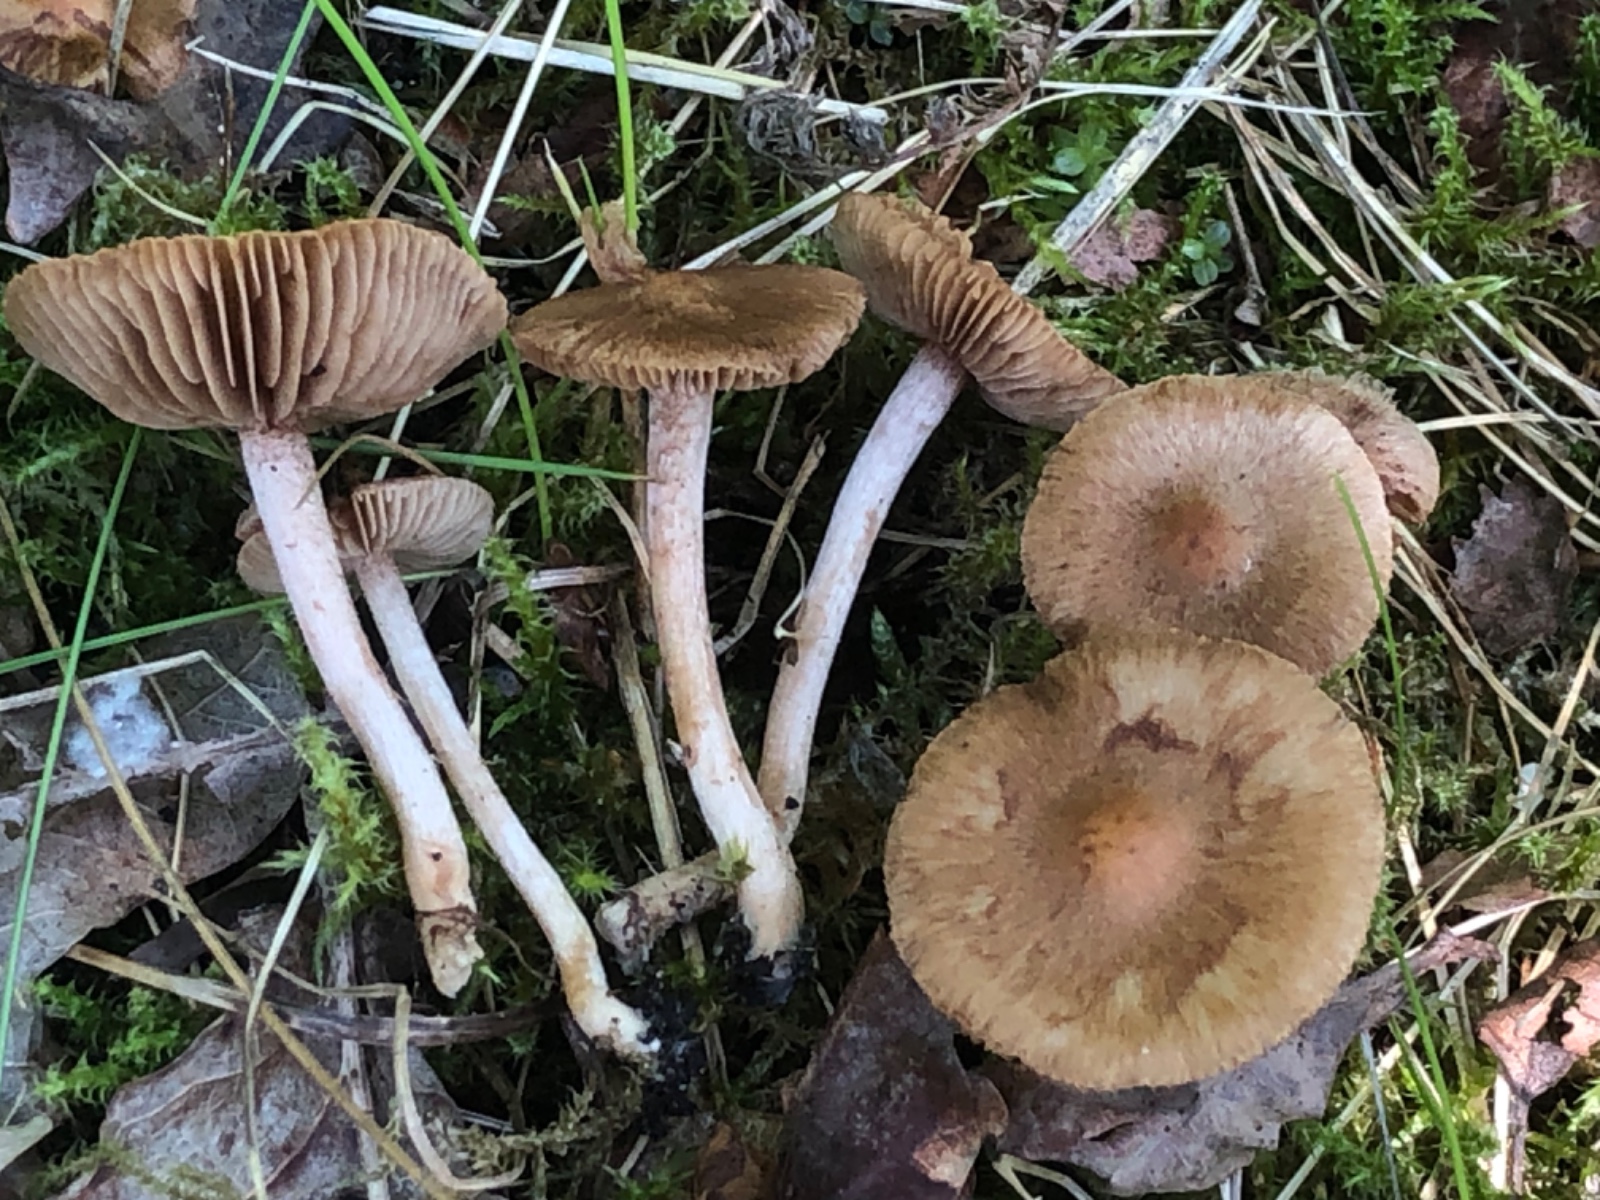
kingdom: Fungi
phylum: Basidiomycota
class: Agaricomycetes
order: Agaricales
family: Inocybaceae
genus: Inocybe
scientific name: Inocybe
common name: trævlhat
